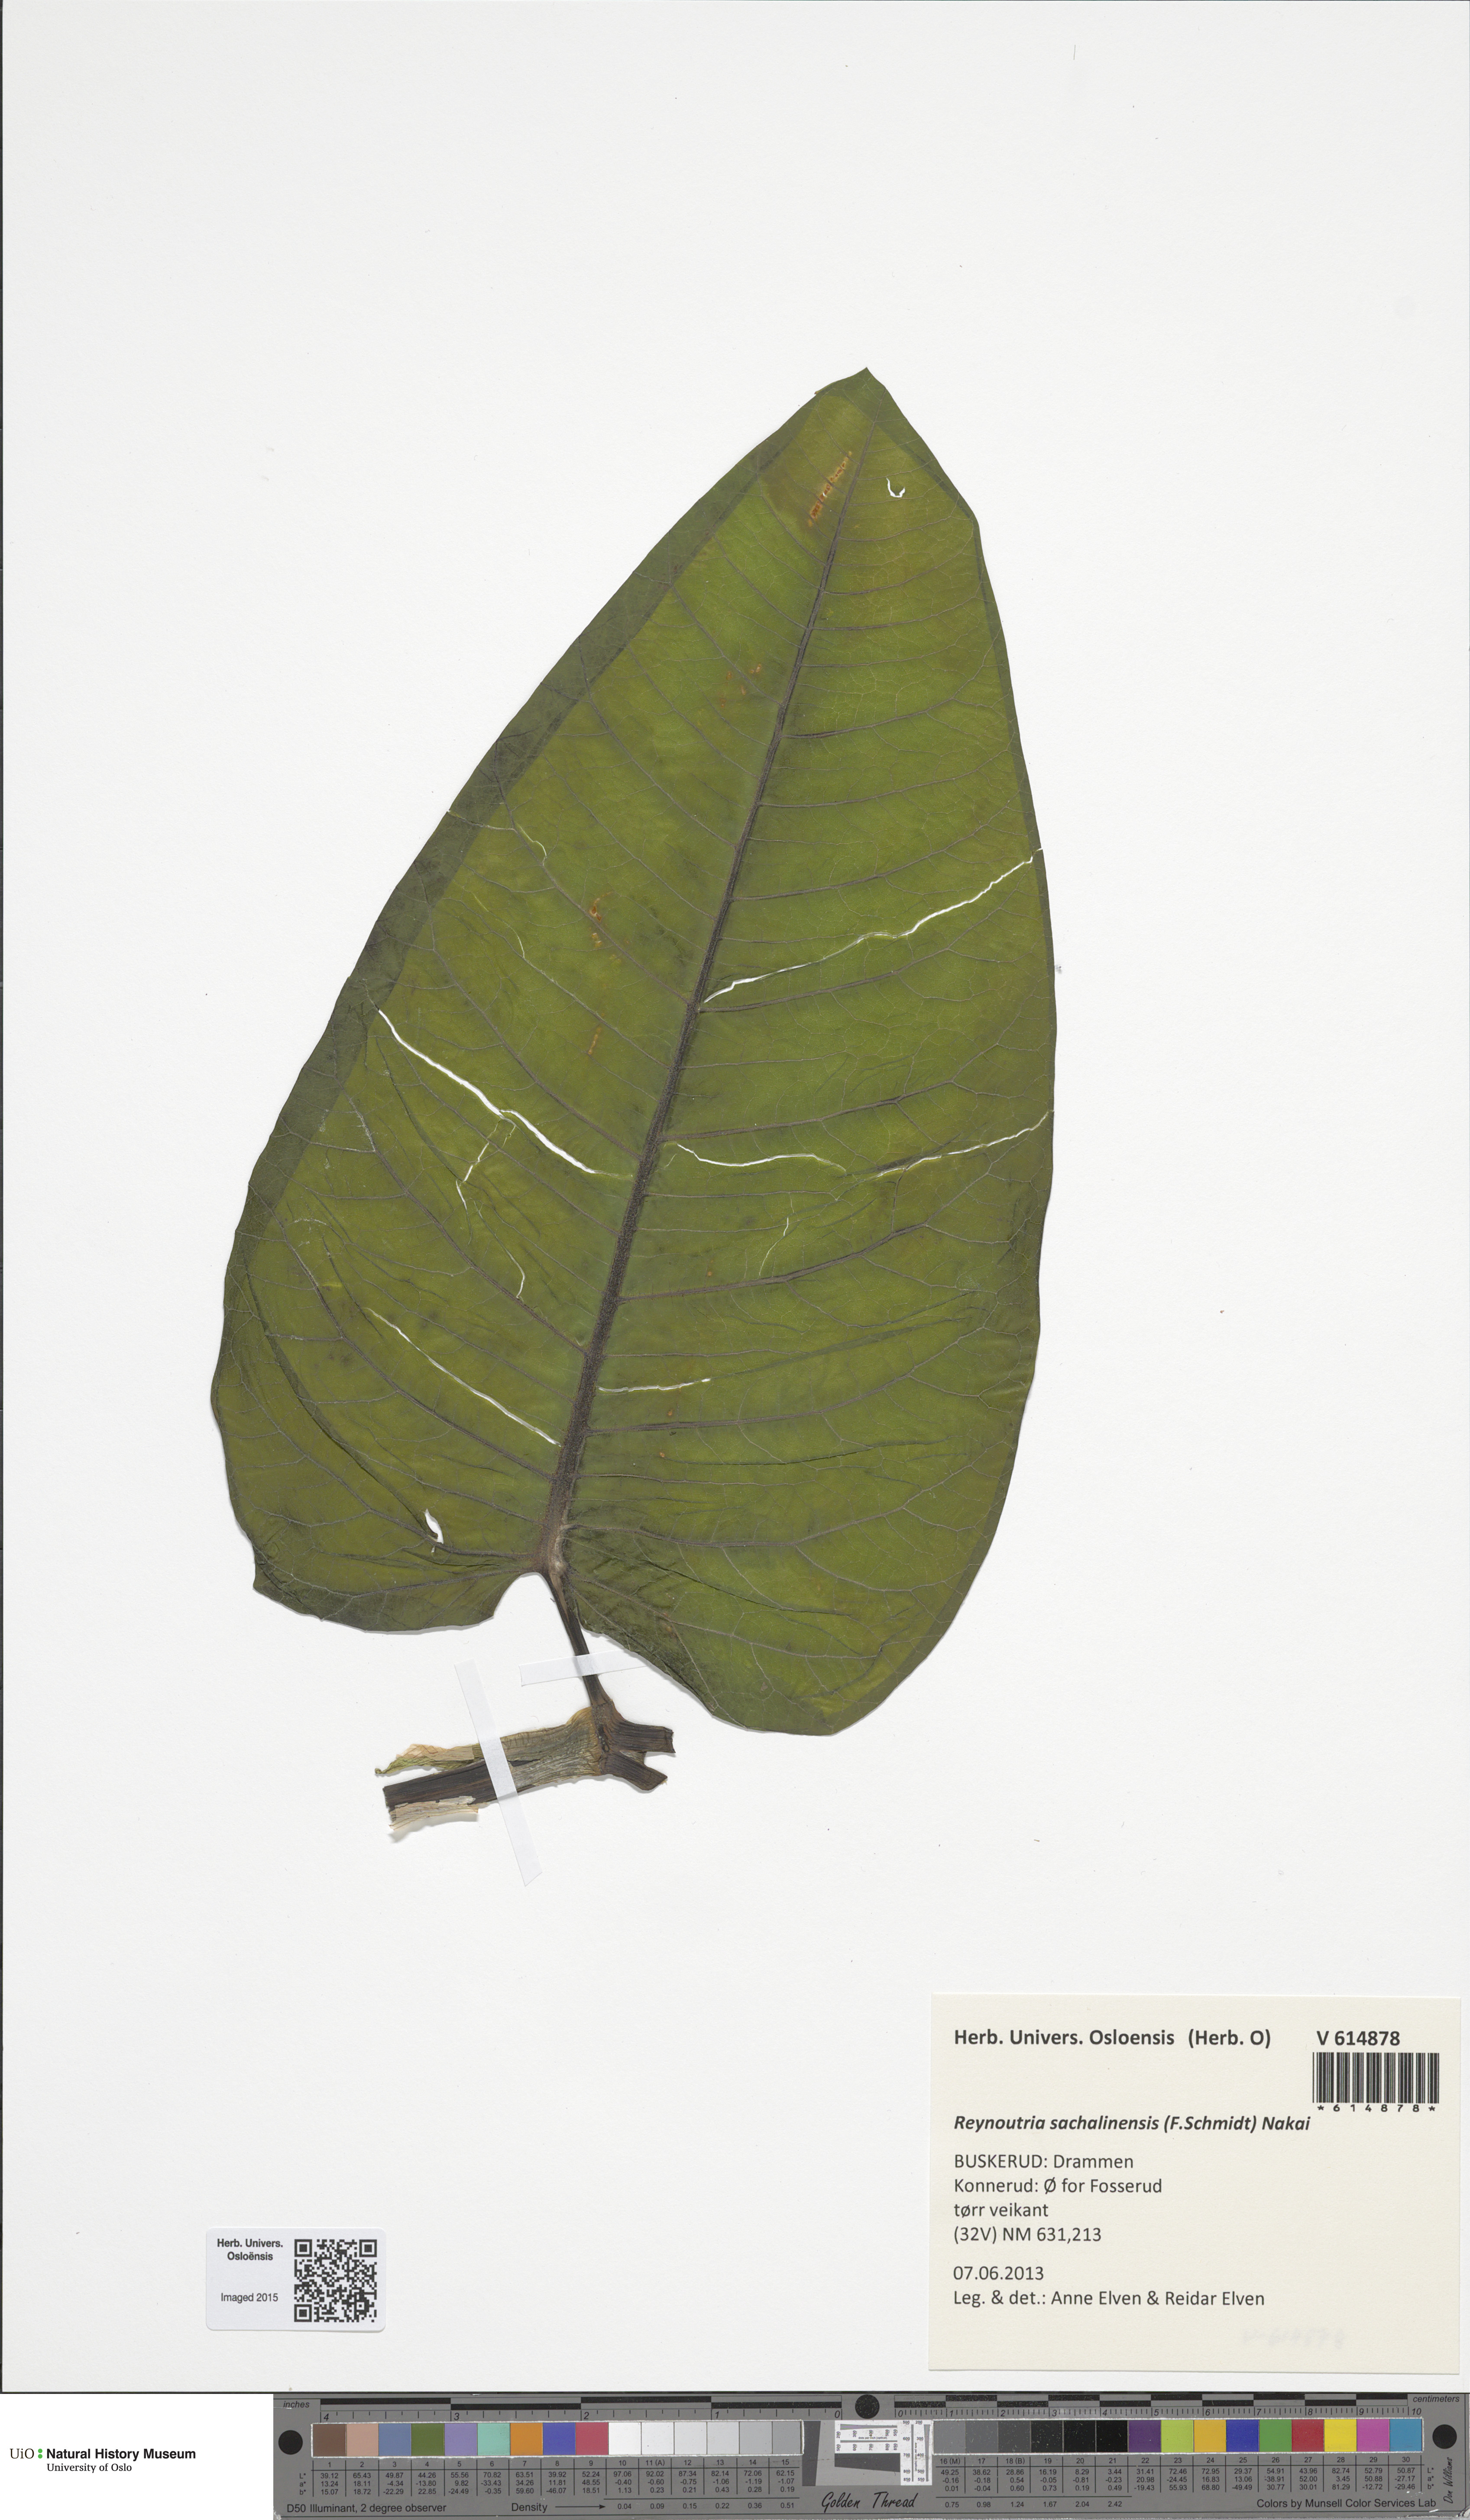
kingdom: Plantae
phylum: Tracheophyta
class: Magnoliopsida
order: Caryophyllales
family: Polygonaceae
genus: Reynoutria
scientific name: Reynoutria sachalinensis
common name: Giant knotweed
